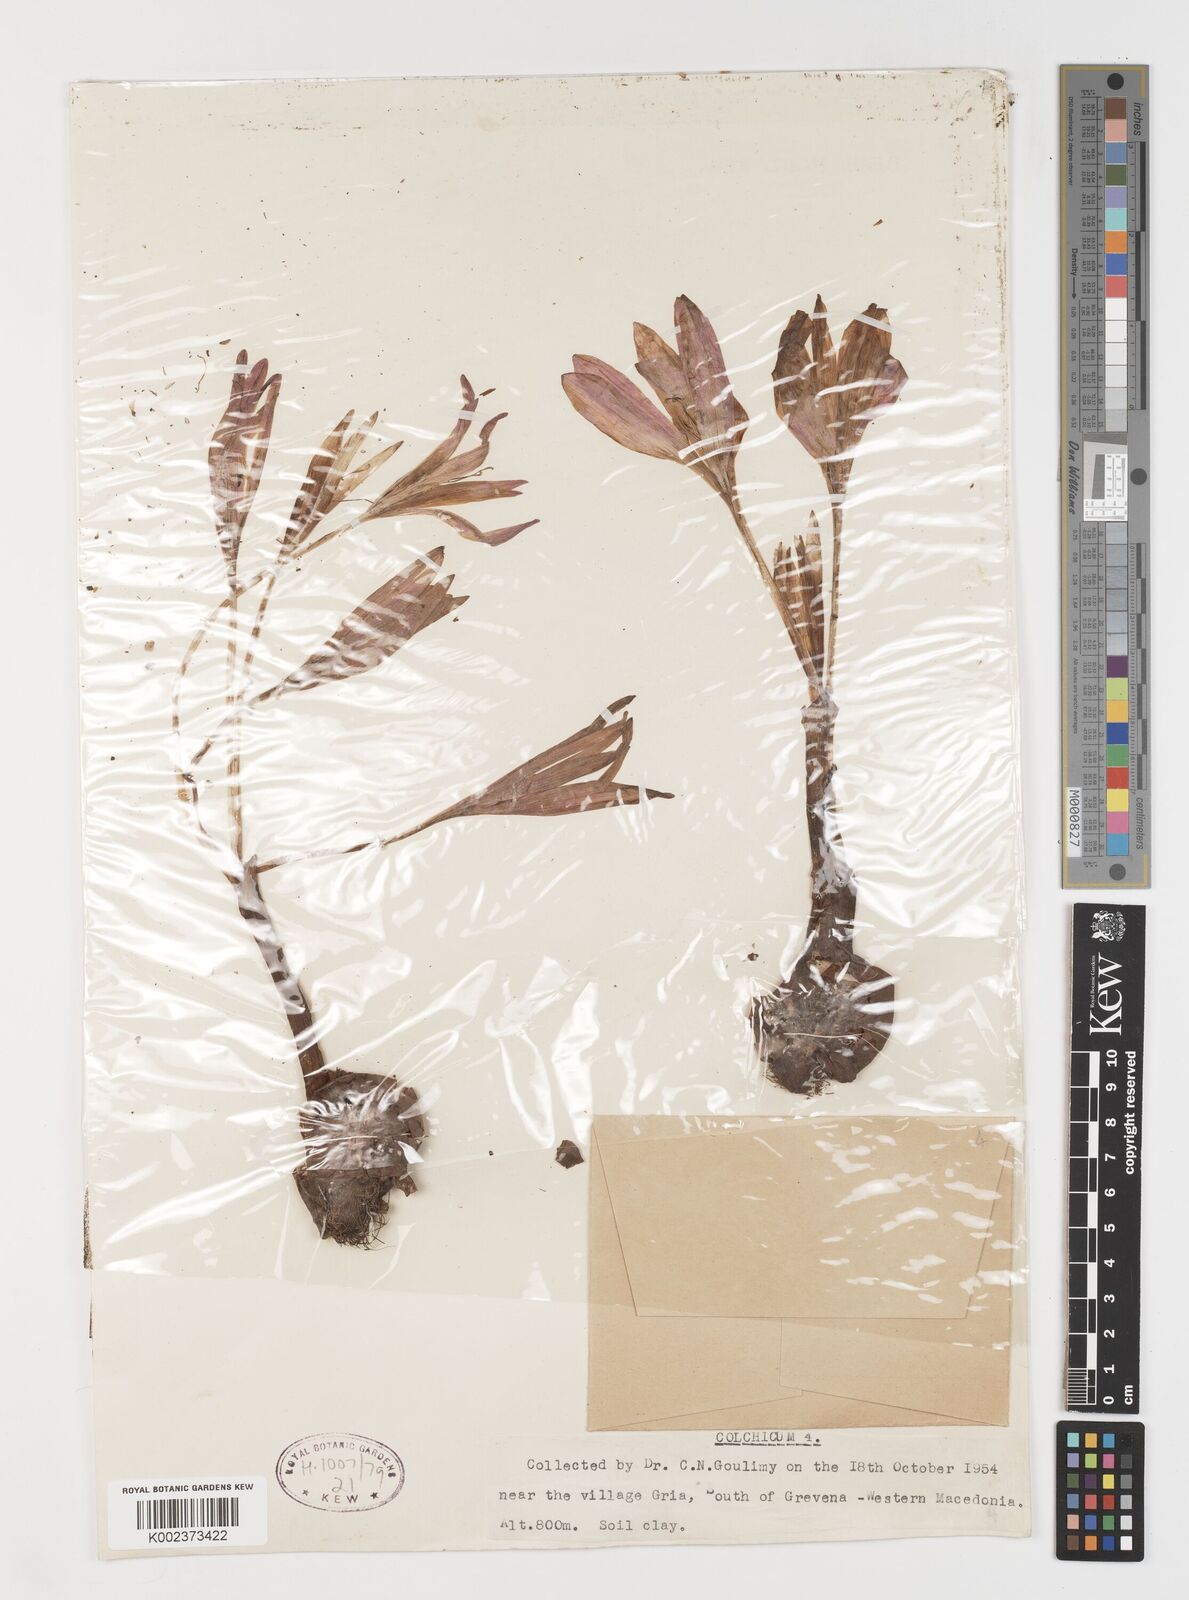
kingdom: Plantae
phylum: Tracheophyta
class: Liliopsida
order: Liliales
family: Colchicaceae
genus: Colchicum
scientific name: Colchicum
